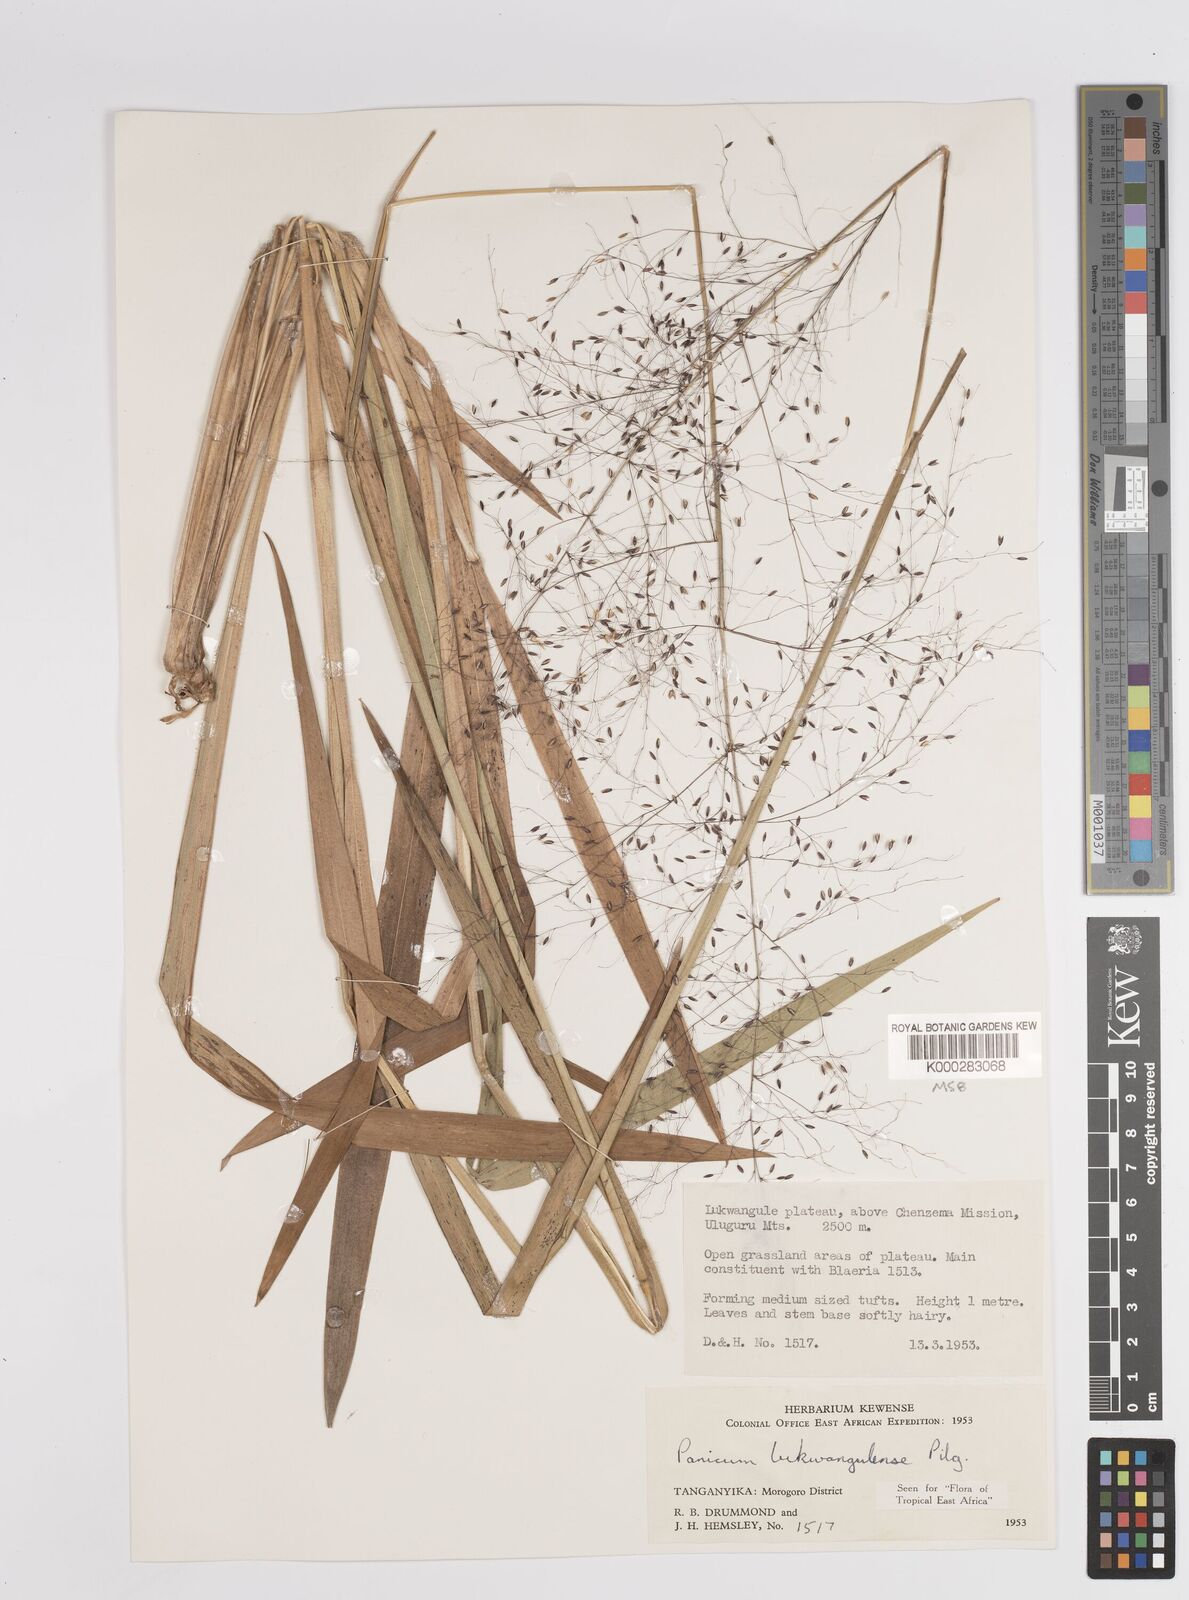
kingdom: Plantae
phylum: Tracheophyta
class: Liliopsida
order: Poales
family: Poaceae
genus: Adenochloa
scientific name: Adenochloa lukwangulense
